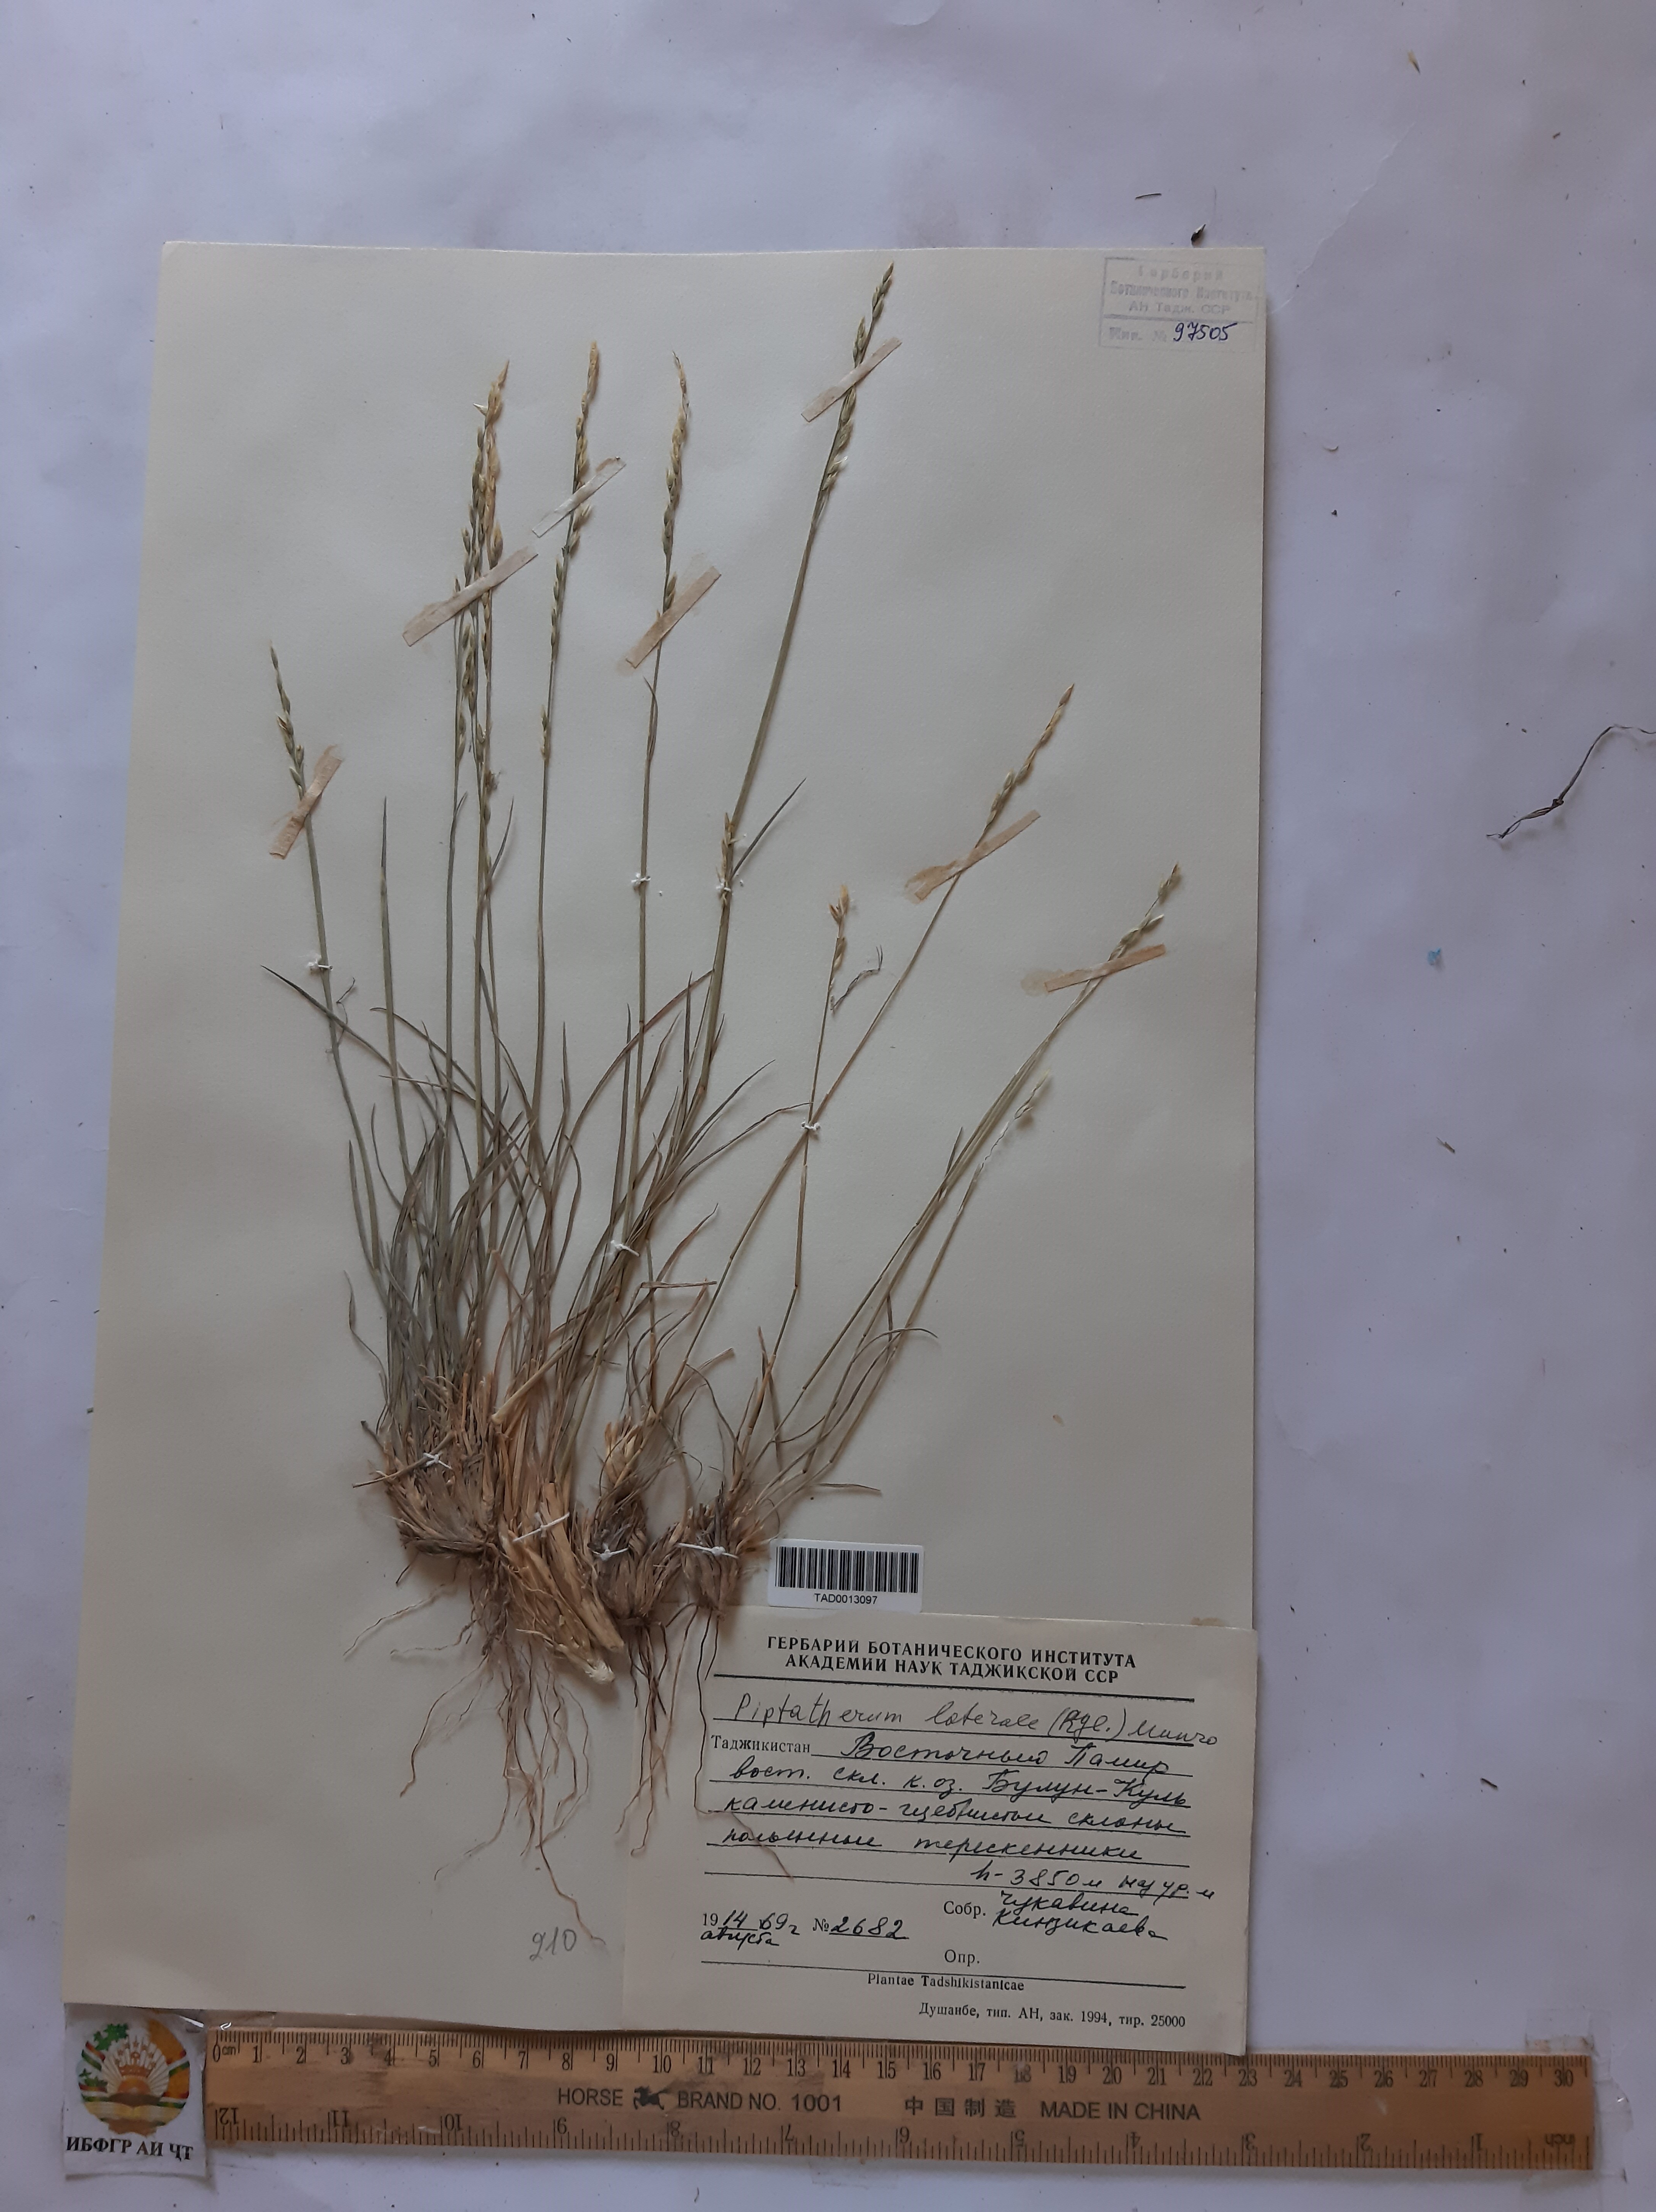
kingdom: Plantae
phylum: Tracheophyta
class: Liliopsida
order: Poales
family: Poaceae
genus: Piptatherum
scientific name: Piptatherum laterale
